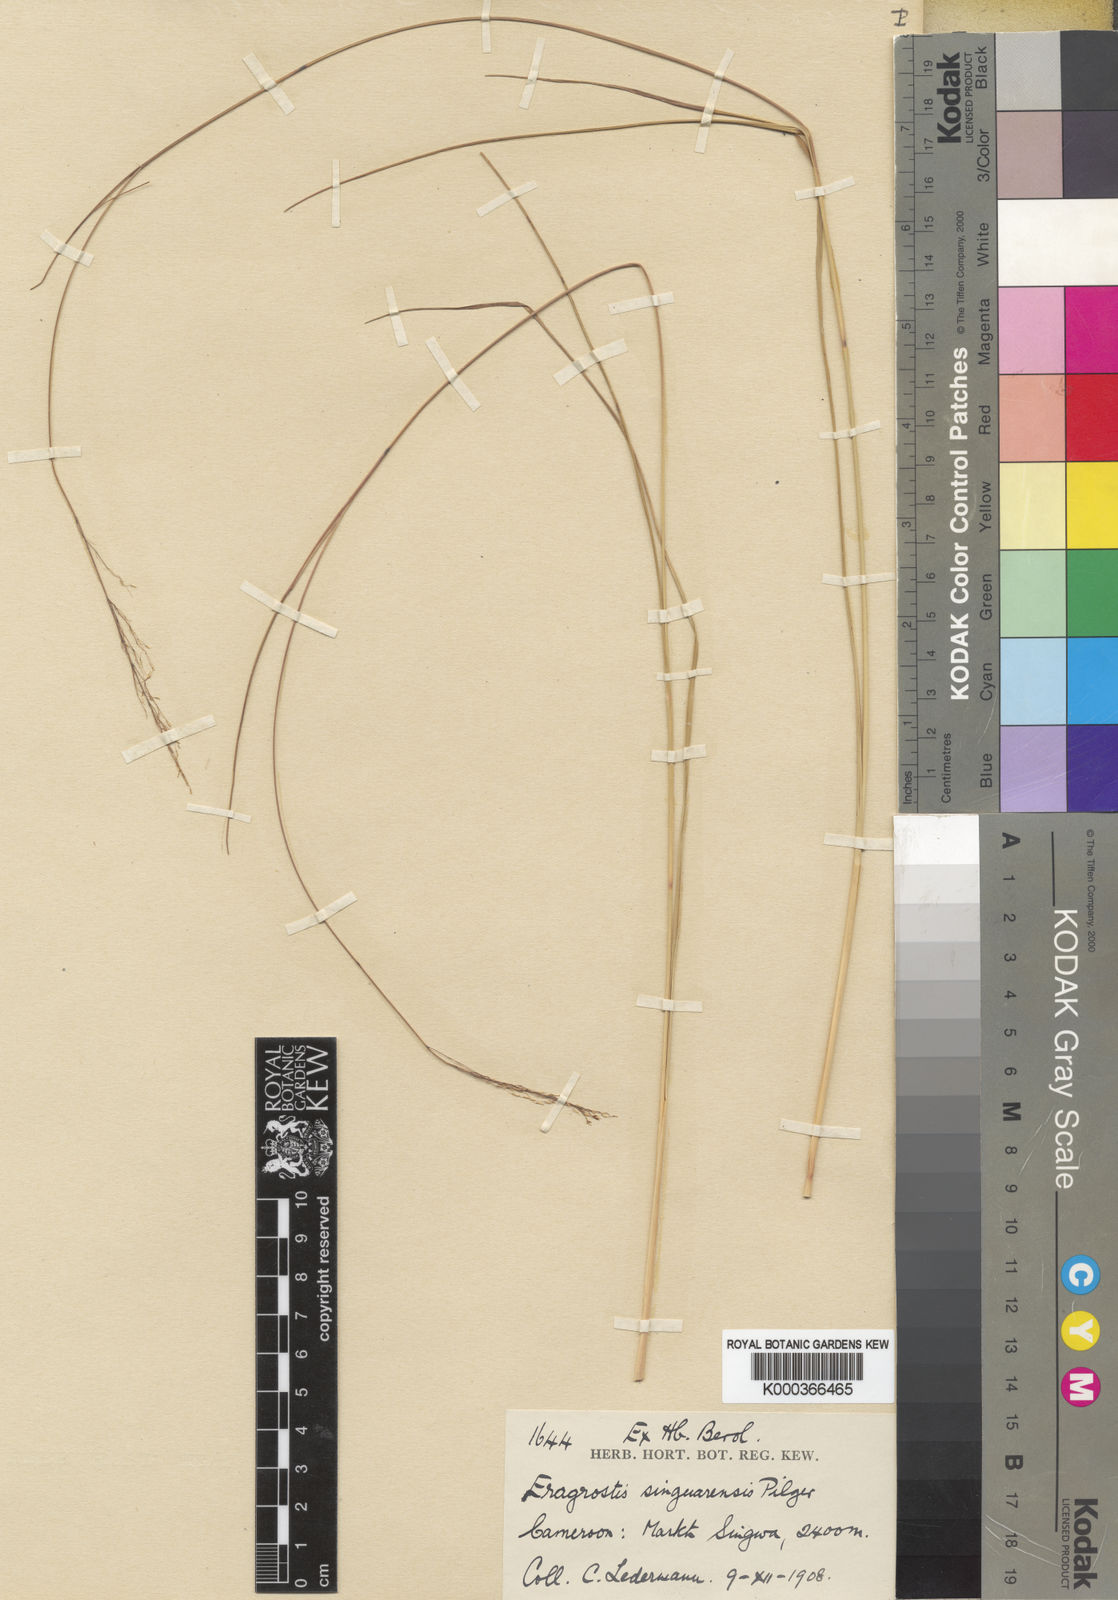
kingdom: Plantae
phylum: Tracheophyta
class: Liliopsida
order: Poales
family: Poaceae
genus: Eragrostis
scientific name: Eragrostis singuaensis
